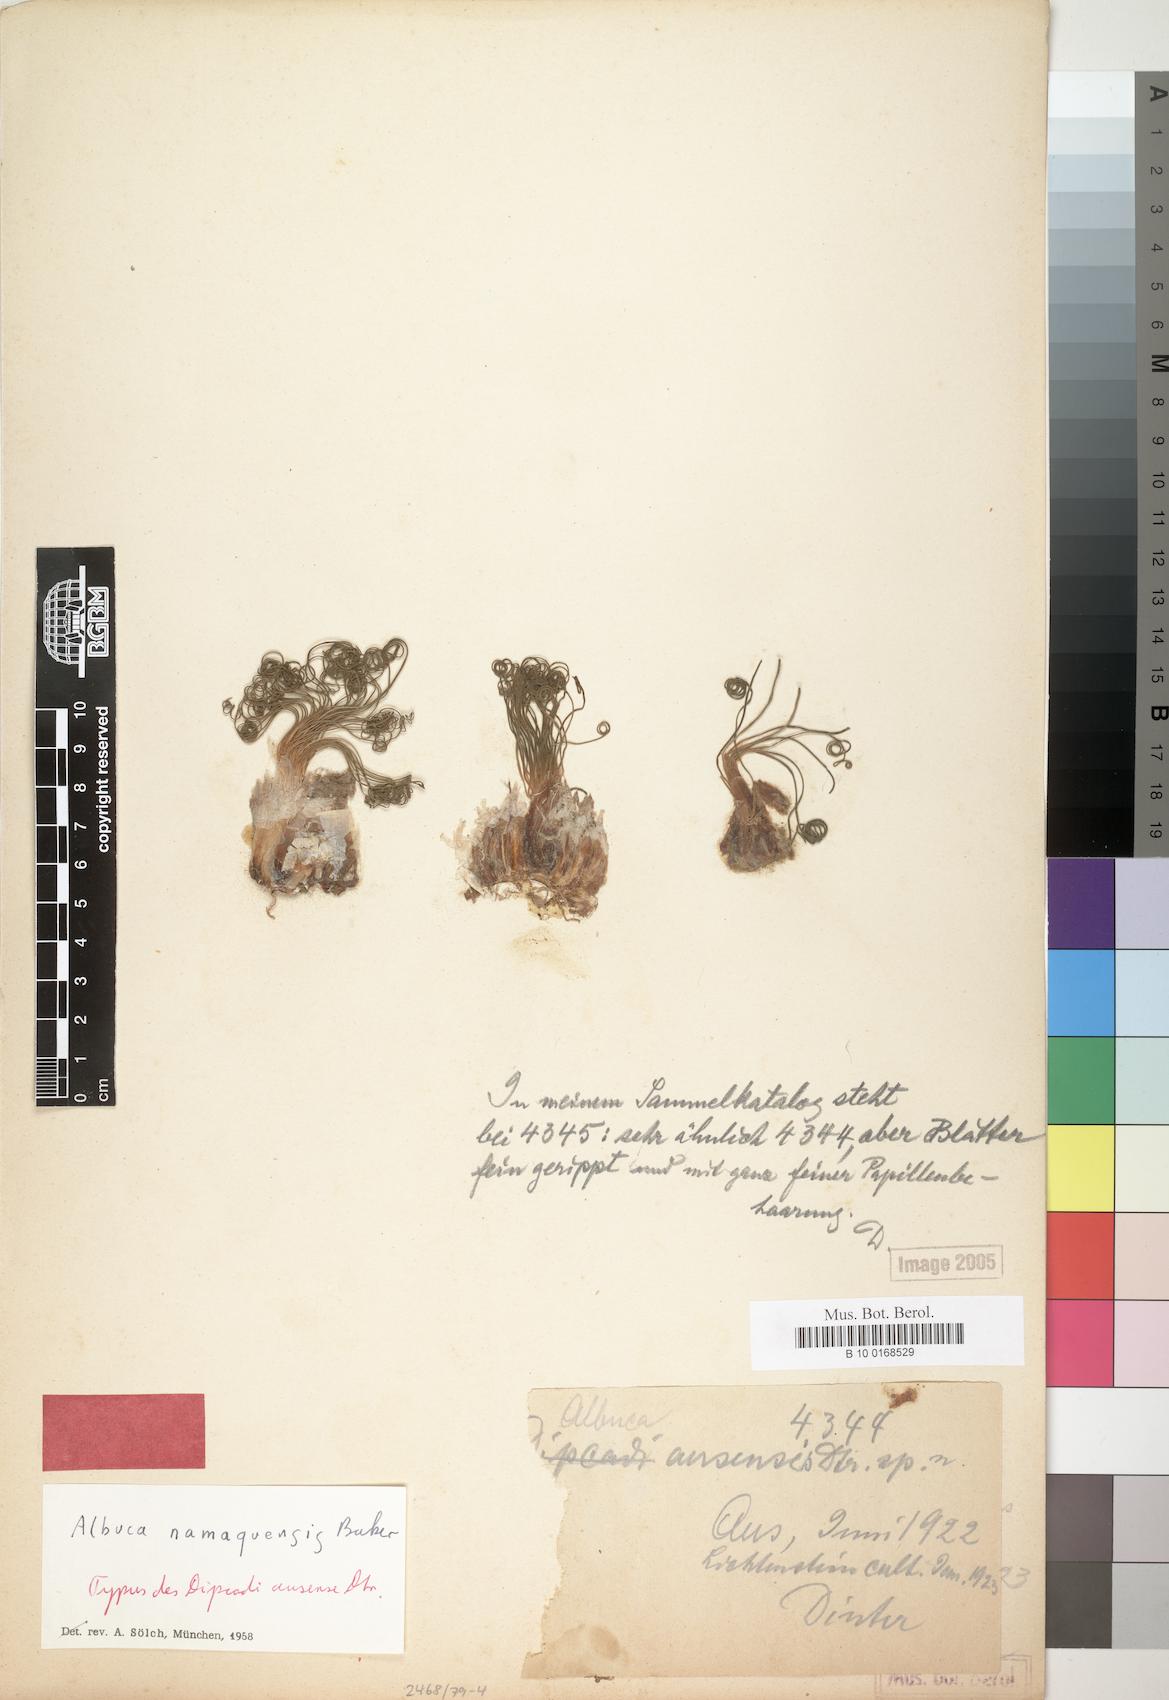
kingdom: Plantae
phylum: Tracheophyta
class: Liliopsida
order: Asparagales
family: Asparagaceae
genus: Albuca
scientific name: Albuca namaquensis
